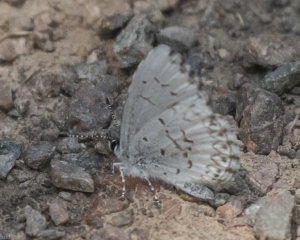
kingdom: Animalia
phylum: Arthropoda
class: Insecta
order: Lepidoptera
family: Lycaenidae
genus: Celastrina
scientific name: Celastrina
